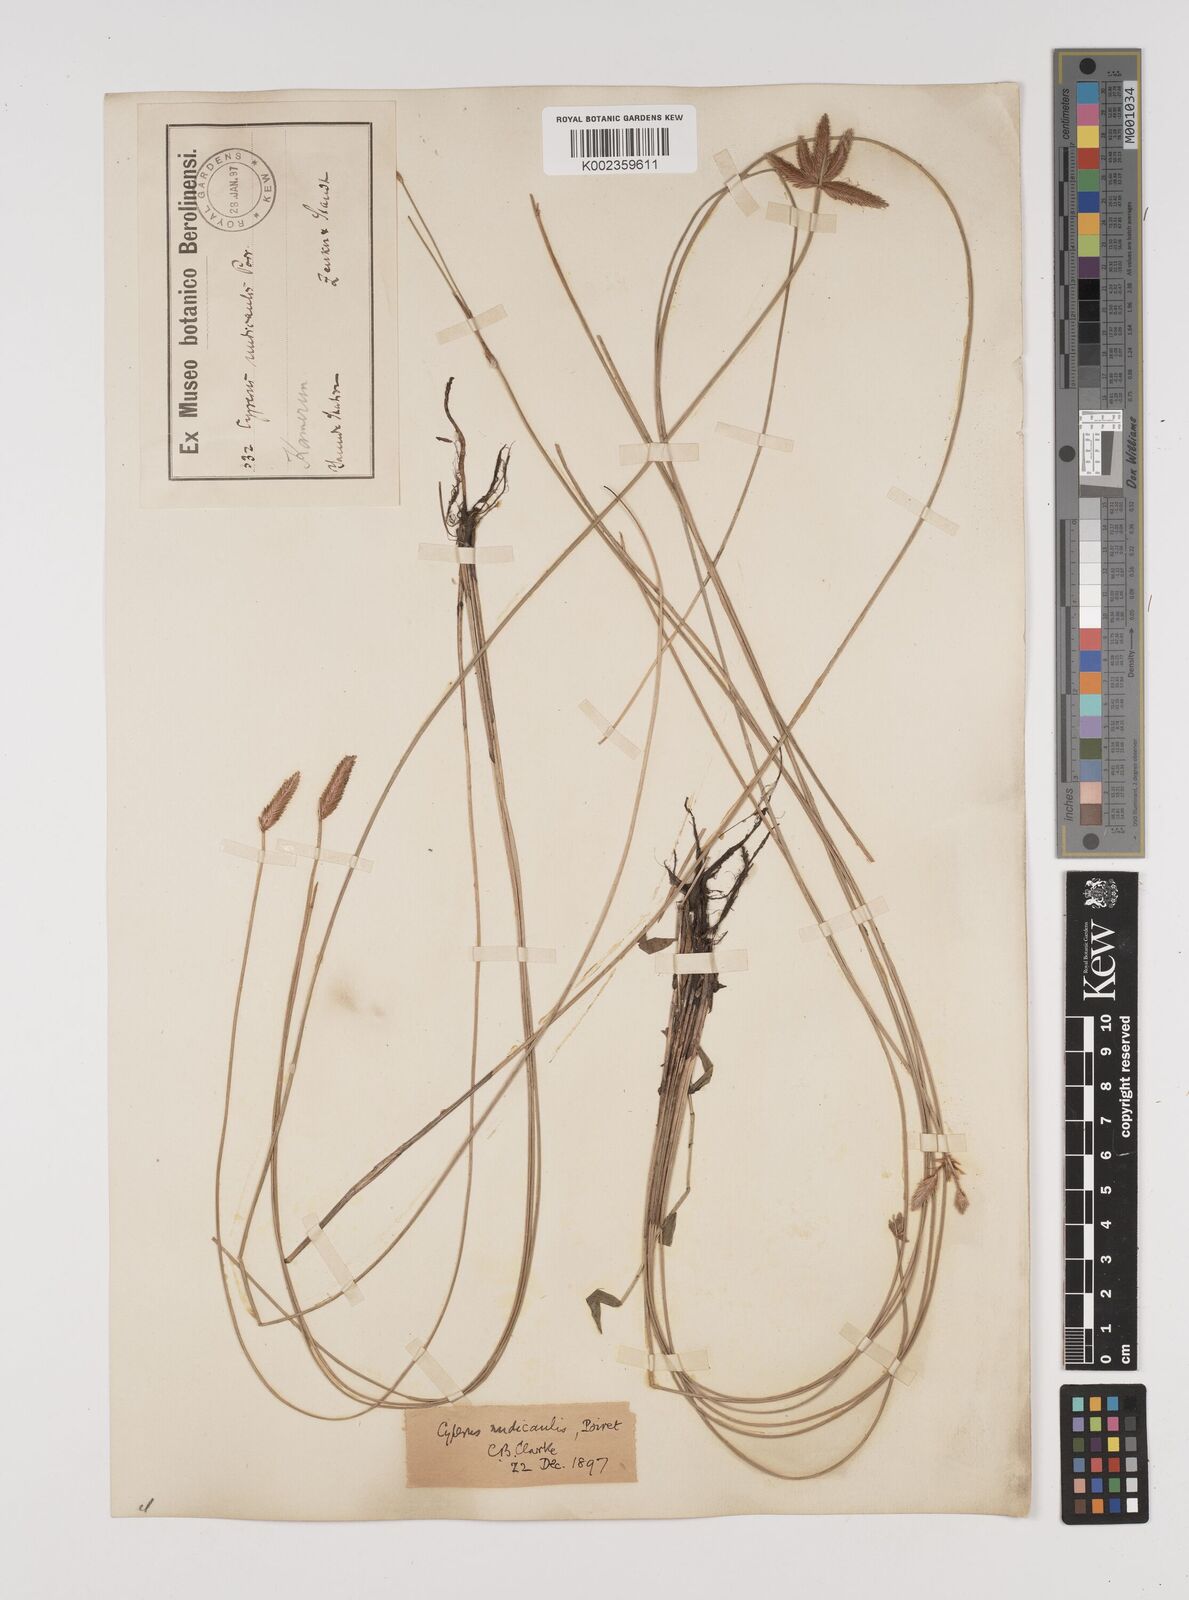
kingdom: Plantae
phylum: Tracheophyta
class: Liliopsida
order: Poales
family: Cyperaceae
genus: Cyperus
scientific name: Cyperus pectinatus
